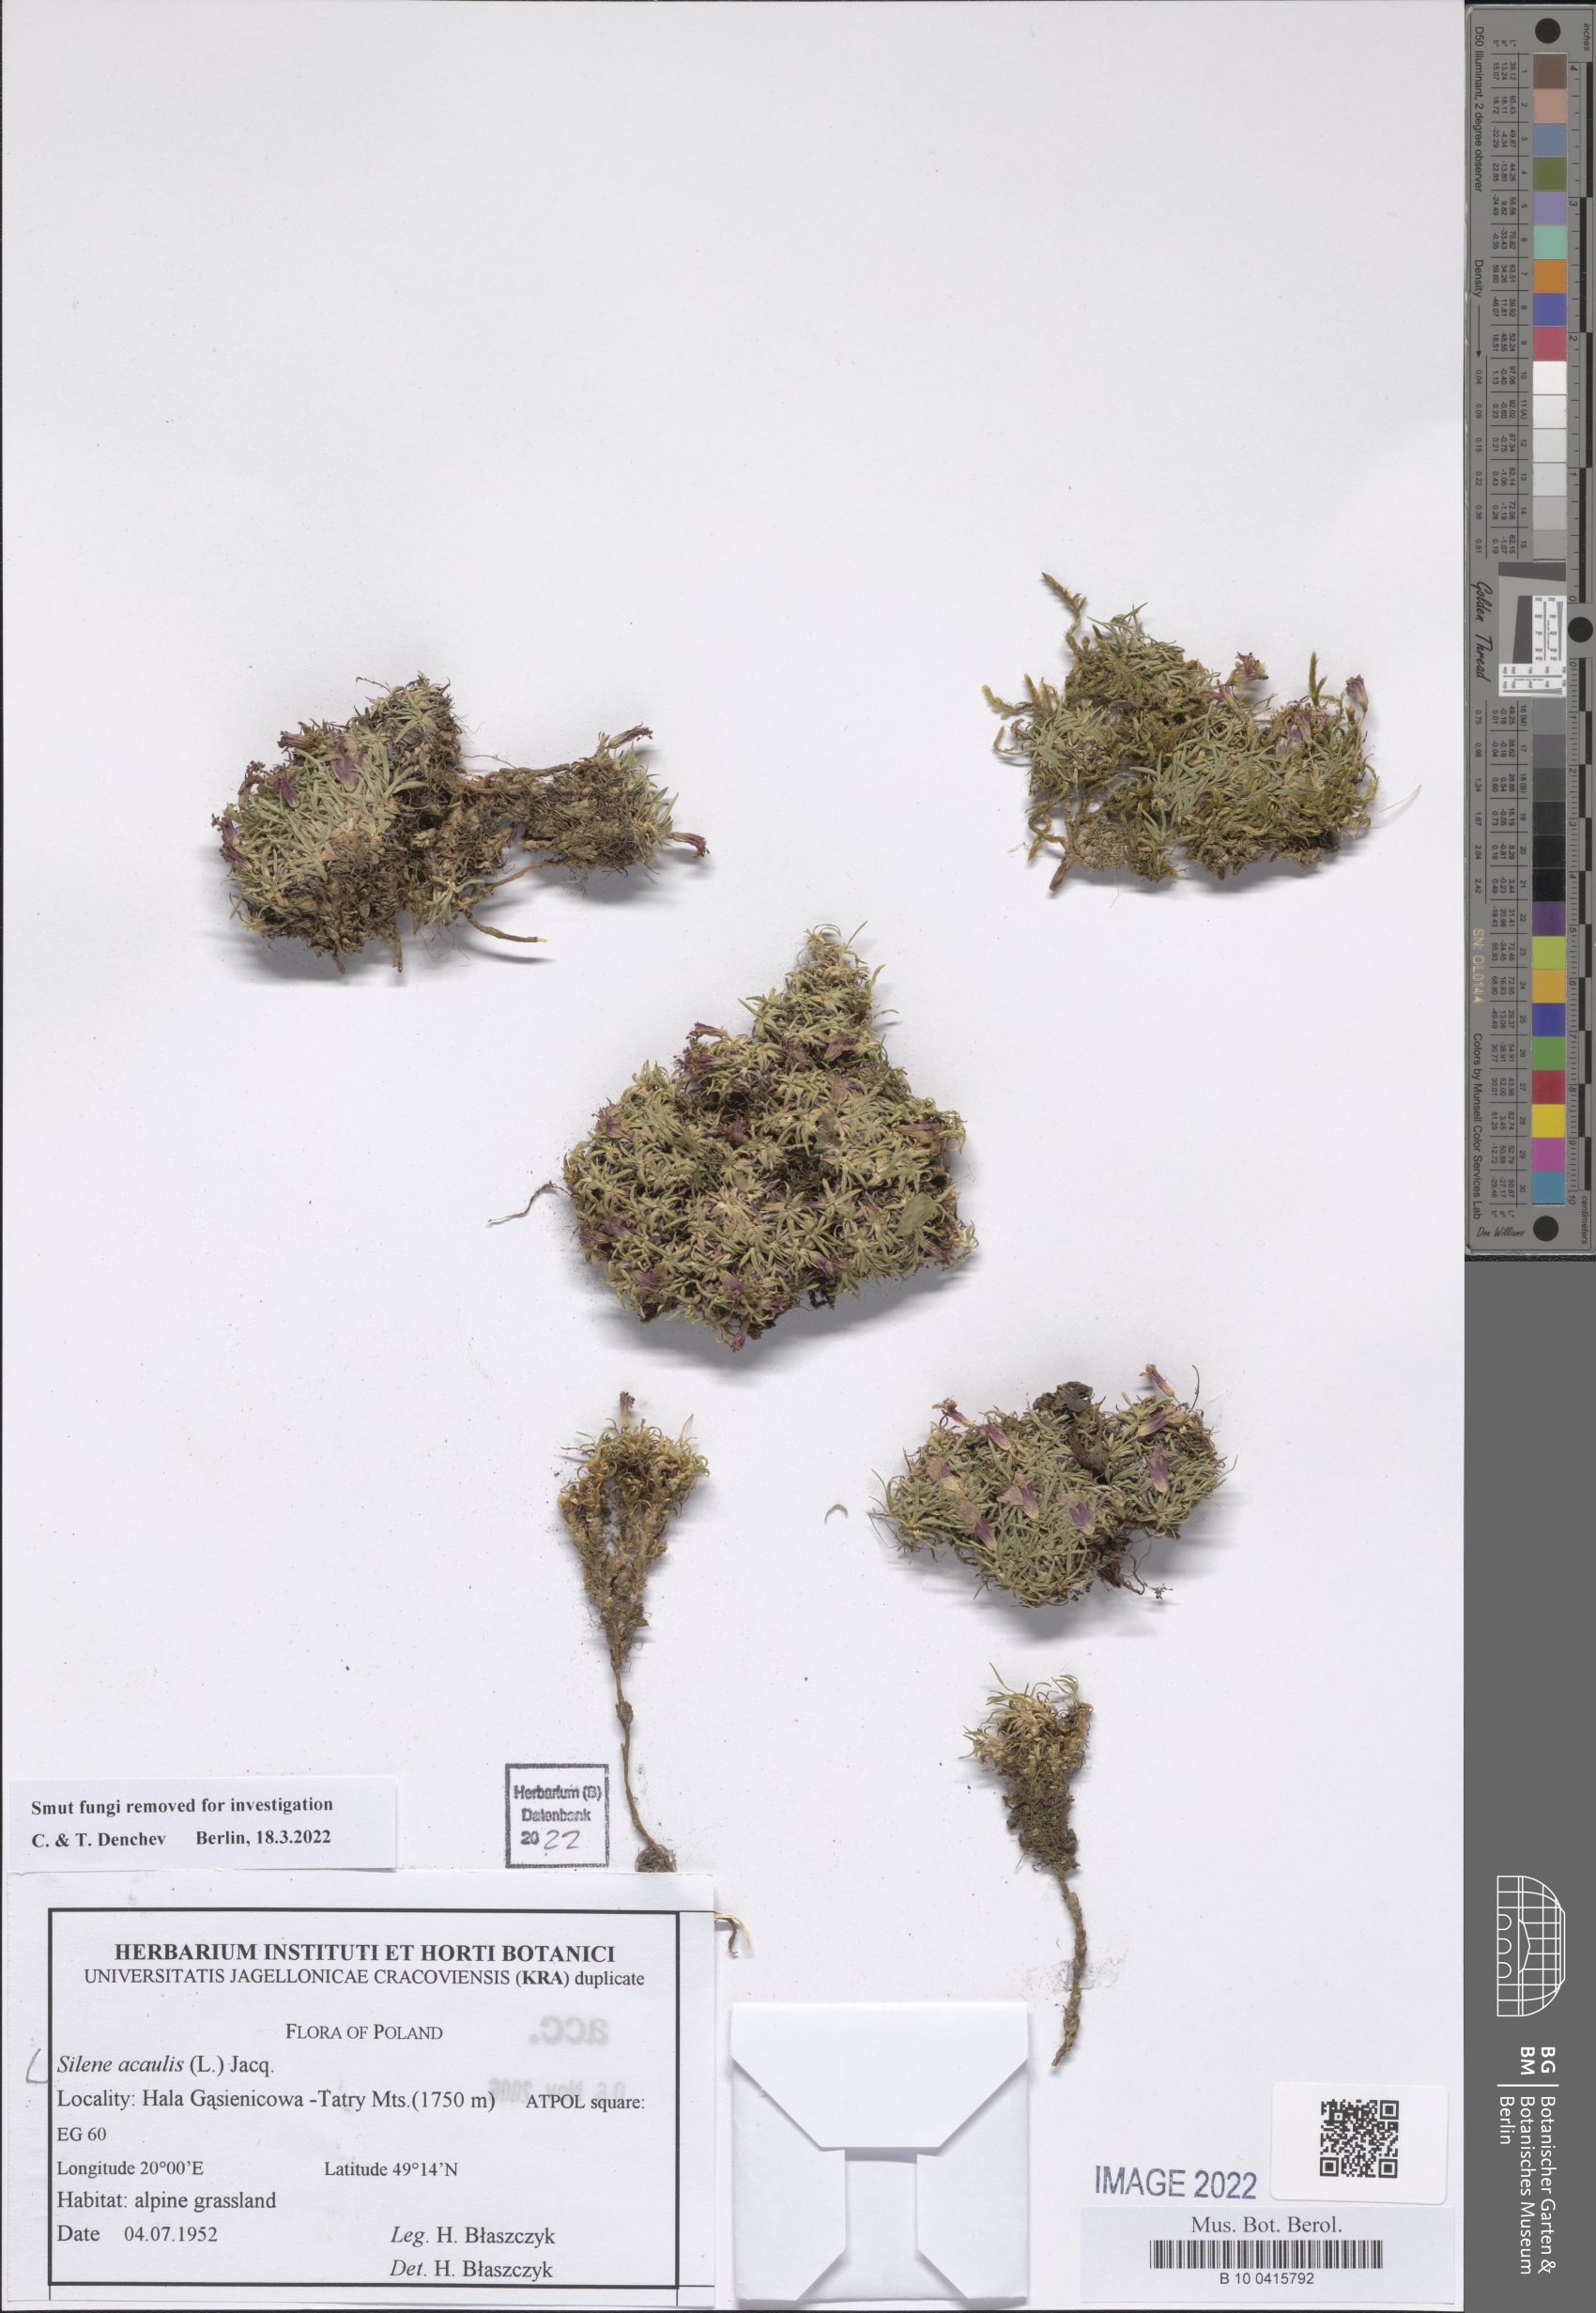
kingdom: Plantae
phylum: Tracheophyta
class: Magnoliopsida
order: Caryophyllales
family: Caryophyllaceae
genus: Silene
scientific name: Silene acaulis
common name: Moss campion
